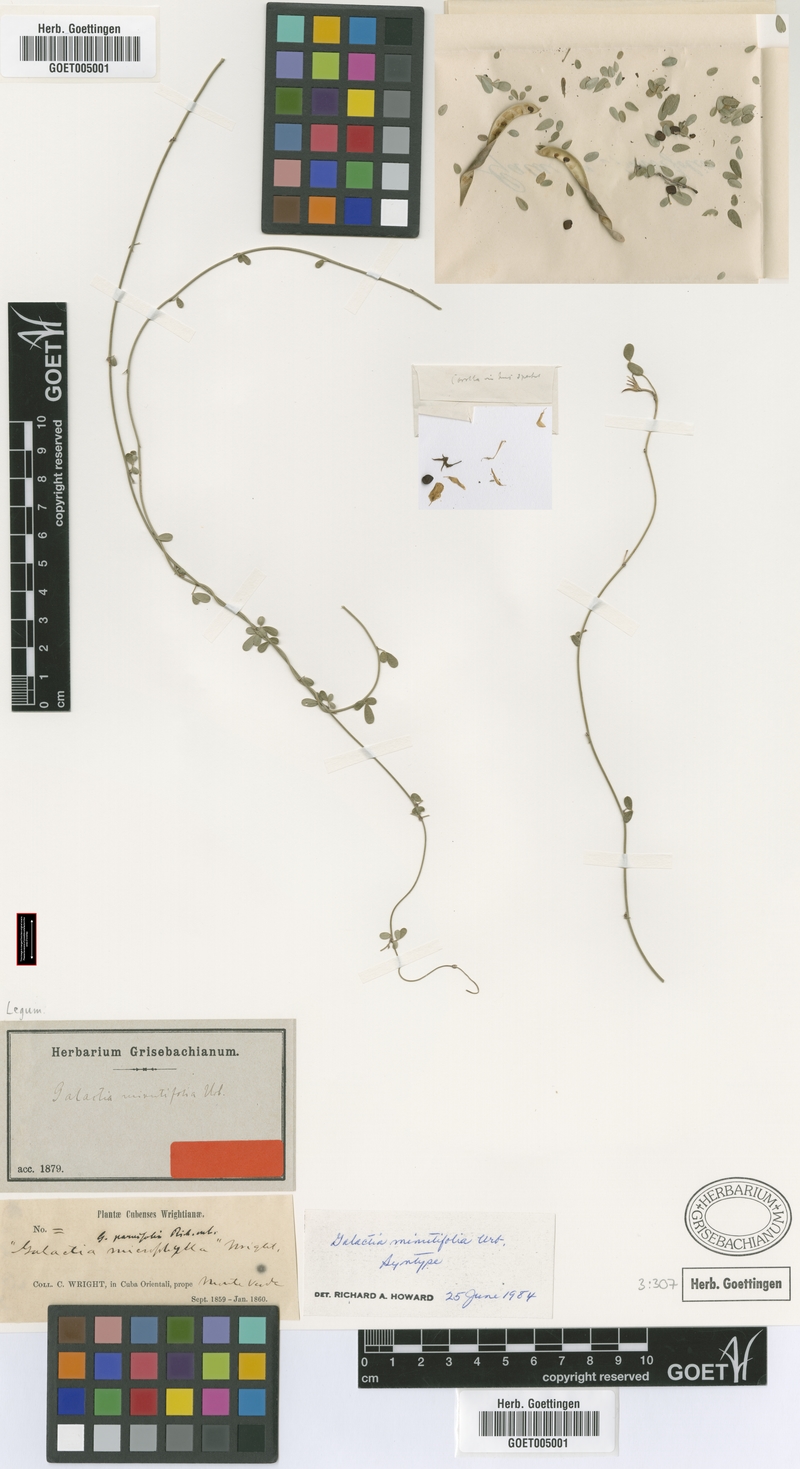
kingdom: Plantae
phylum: Tracheophyta
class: Magnoliopsida
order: Fabales
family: Fabaceae
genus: Galactia
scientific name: Galactia minutifolia
